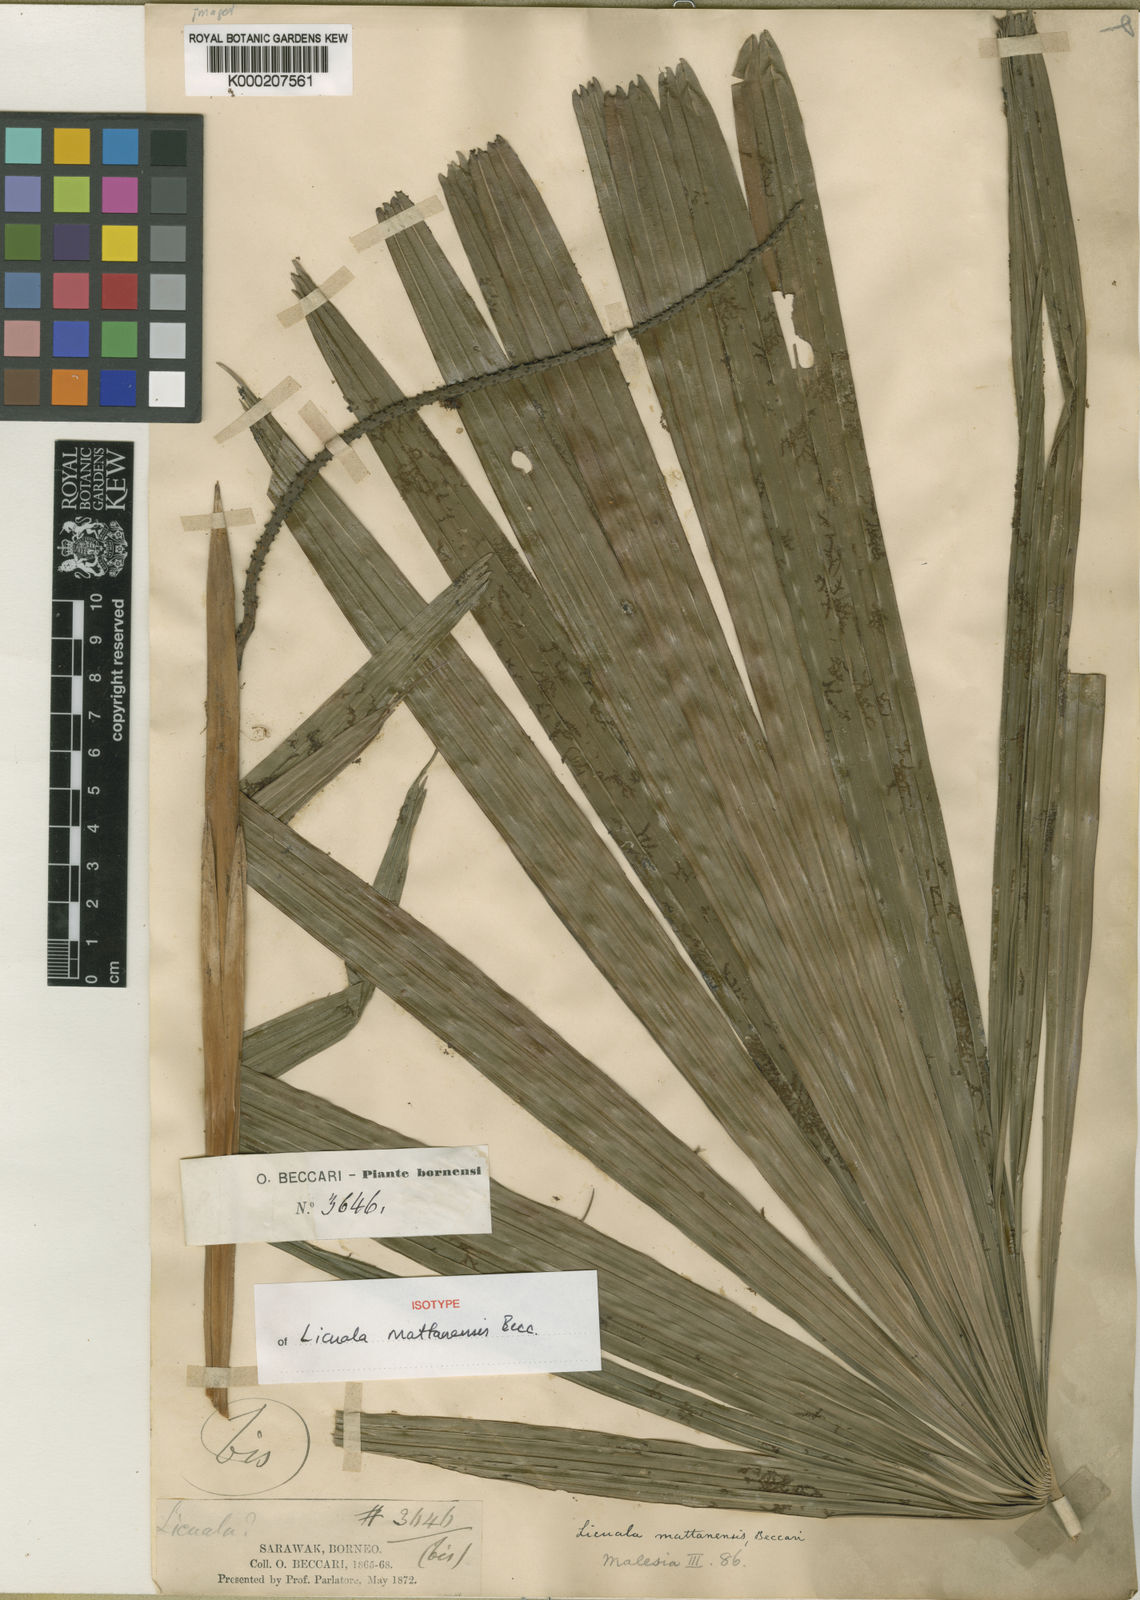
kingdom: Plantae
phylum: Tracheophyta
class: Liliopsida
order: Arecales
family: Arecaceae
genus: Licuala
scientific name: Licuala mattanensis
